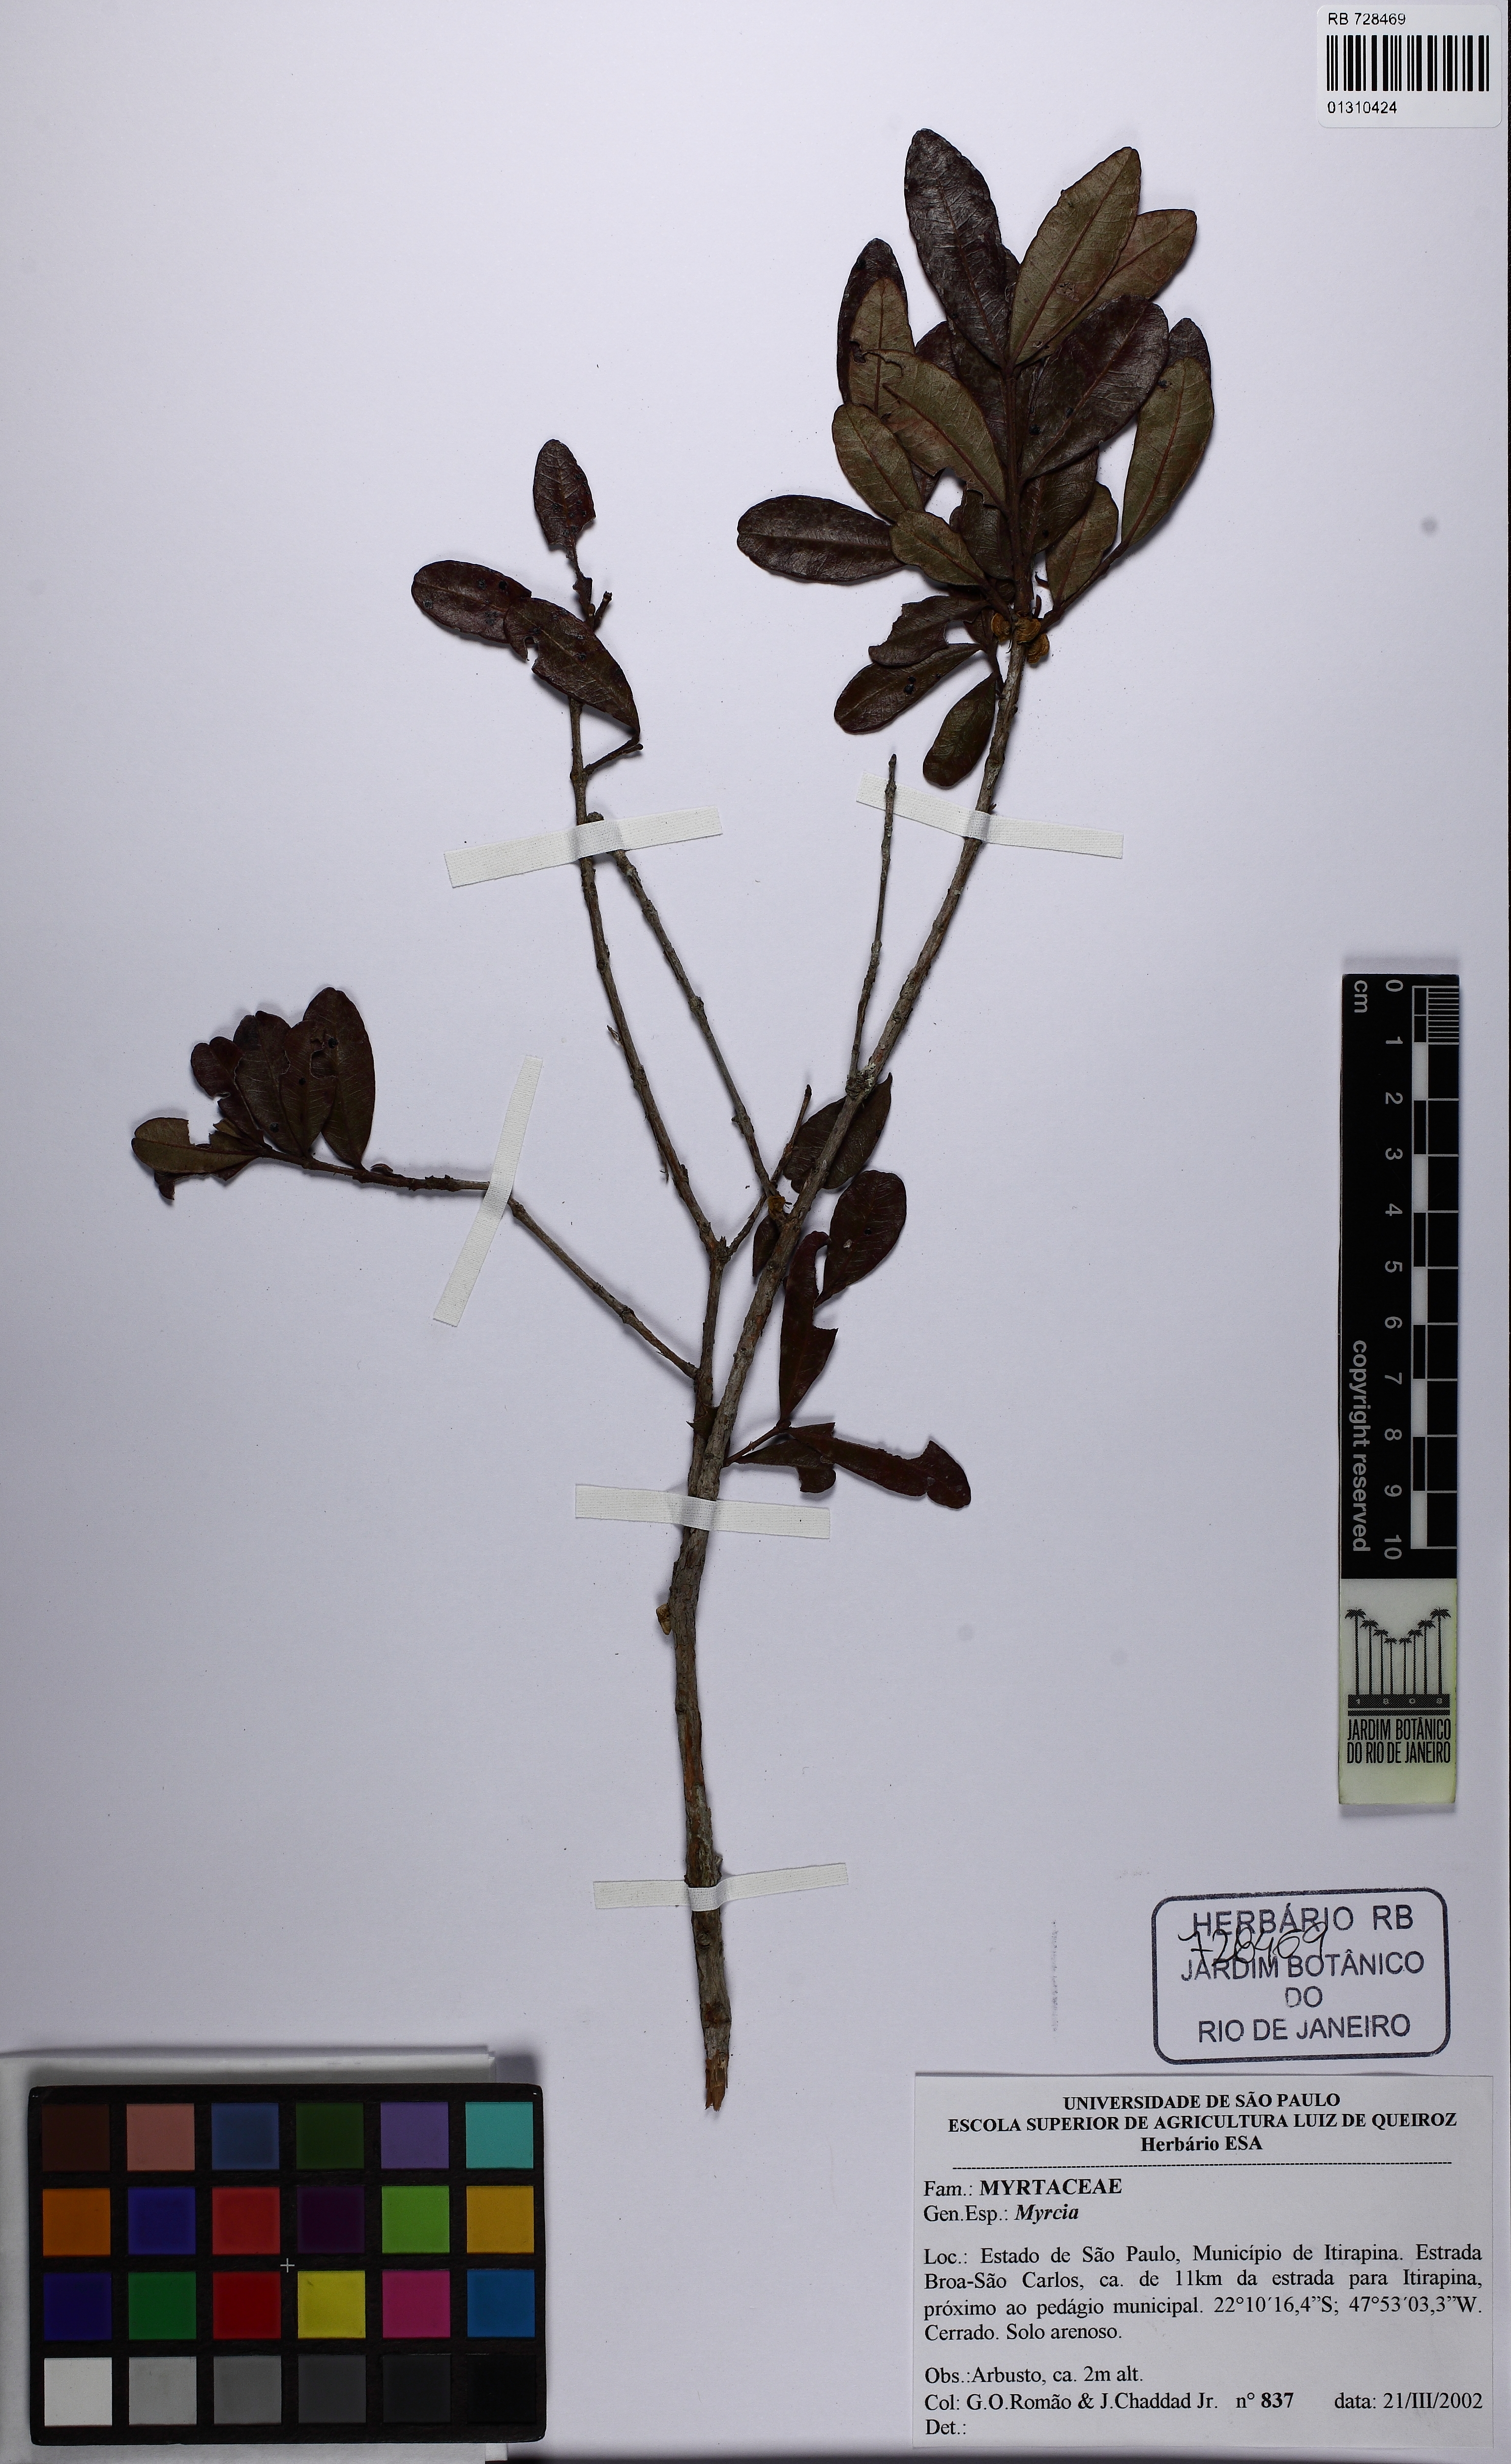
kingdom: Plantae
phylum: Tracheophyta
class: Magnoliopsida
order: Myrtales
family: Myrtaceae
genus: Myrcia
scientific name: Myrcia guianensis
